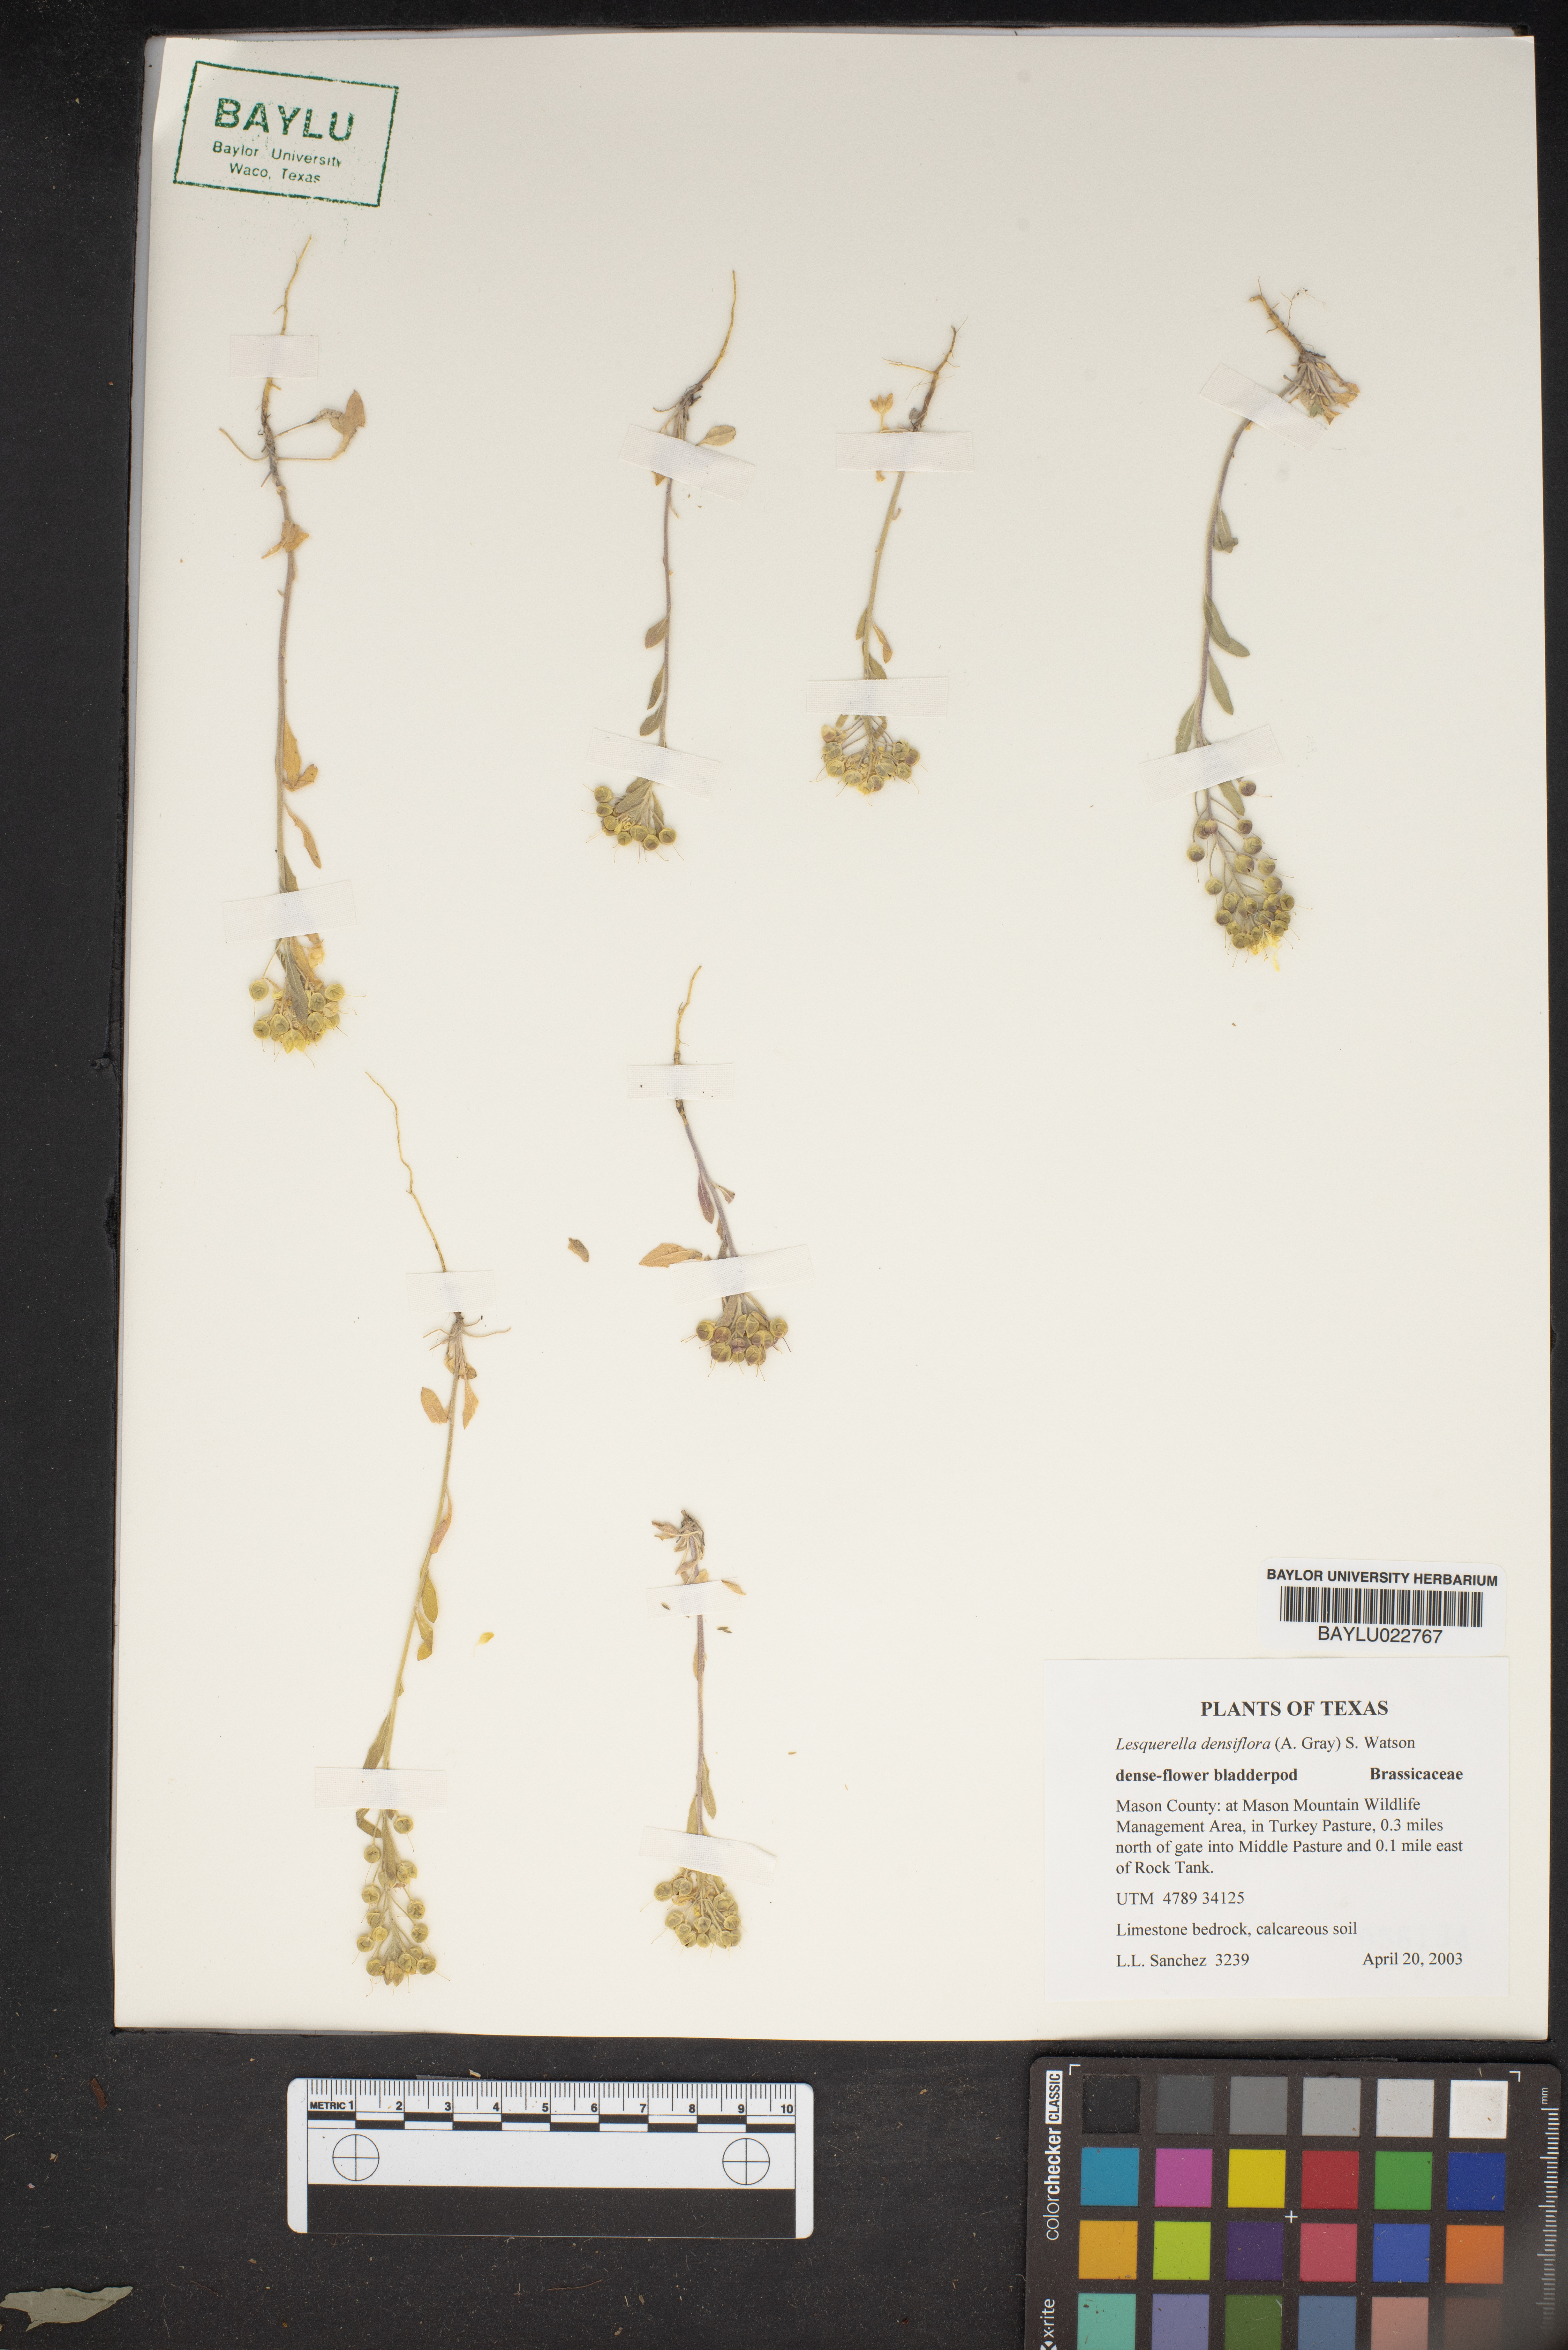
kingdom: Plantae
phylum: Tracheophyta
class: Magnoliopsida
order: Brassicales
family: Brassicaceae
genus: Physaria
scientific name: Physaria densiflora
